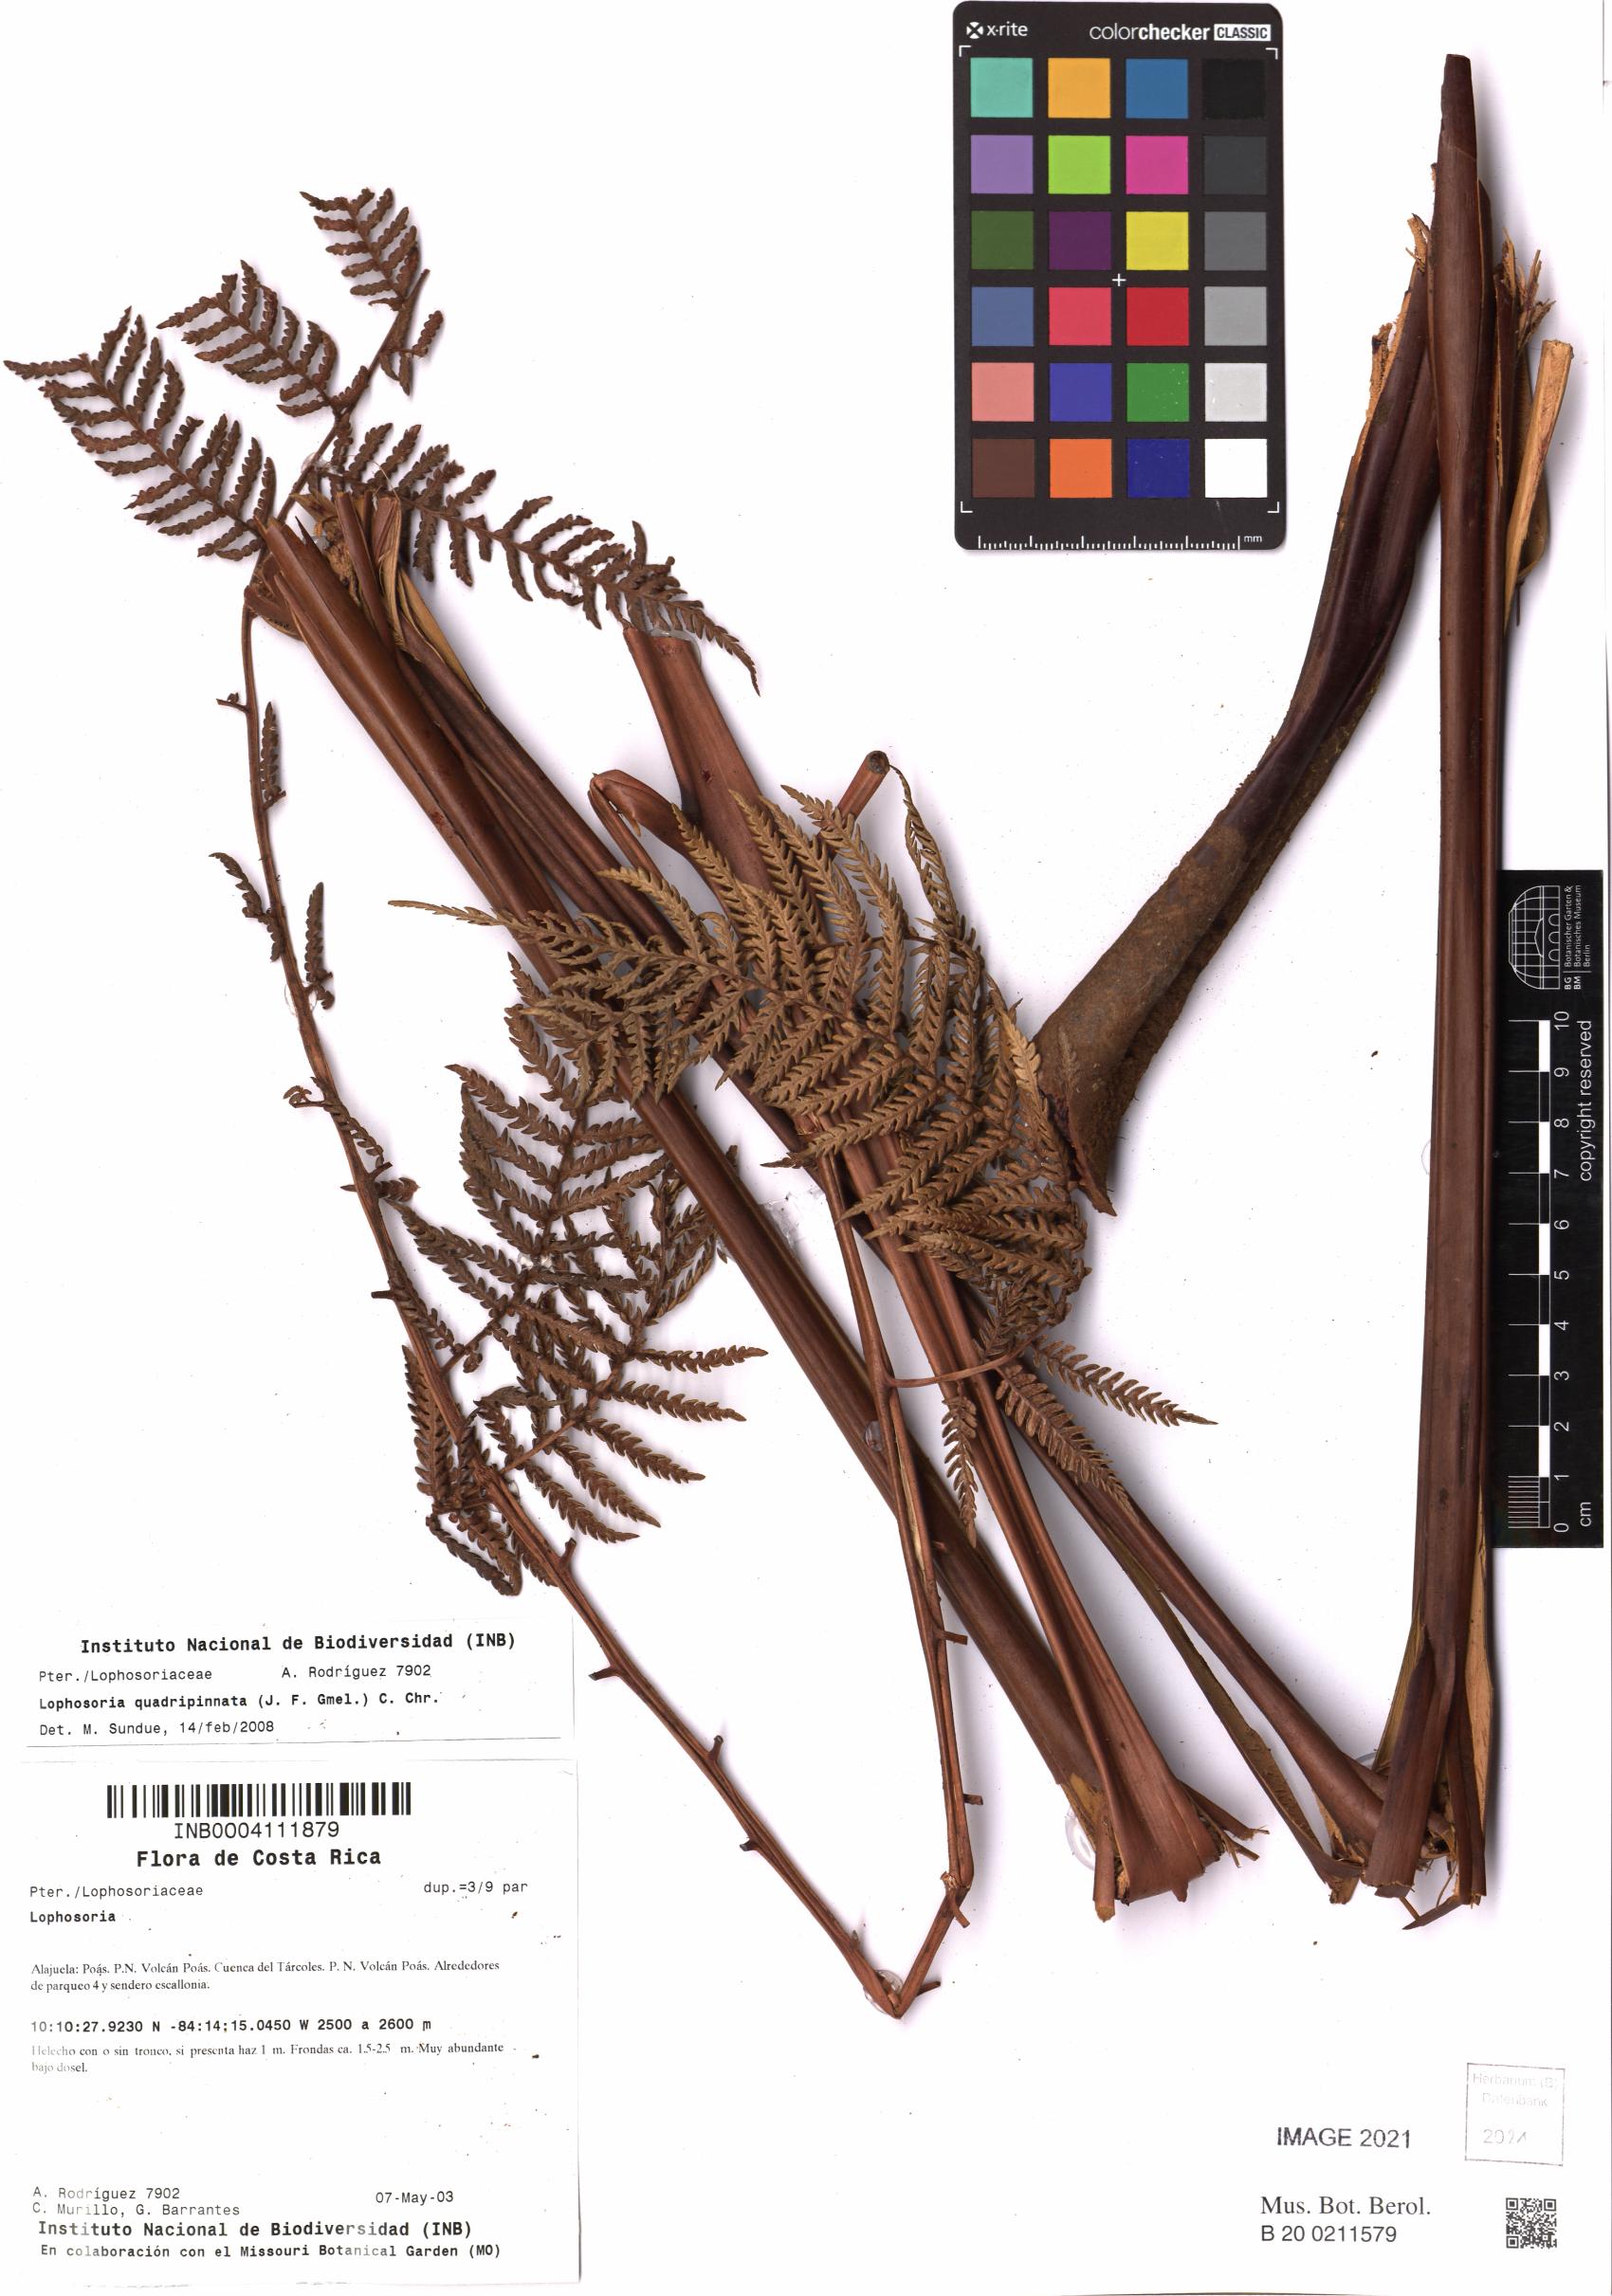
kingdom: Plantae
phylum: Tracheophyta
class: Polypodiopsida
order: Cyatheales
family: Dicksoniaceae
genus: Lophosoria
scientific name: Lophosoria quadripinnata
